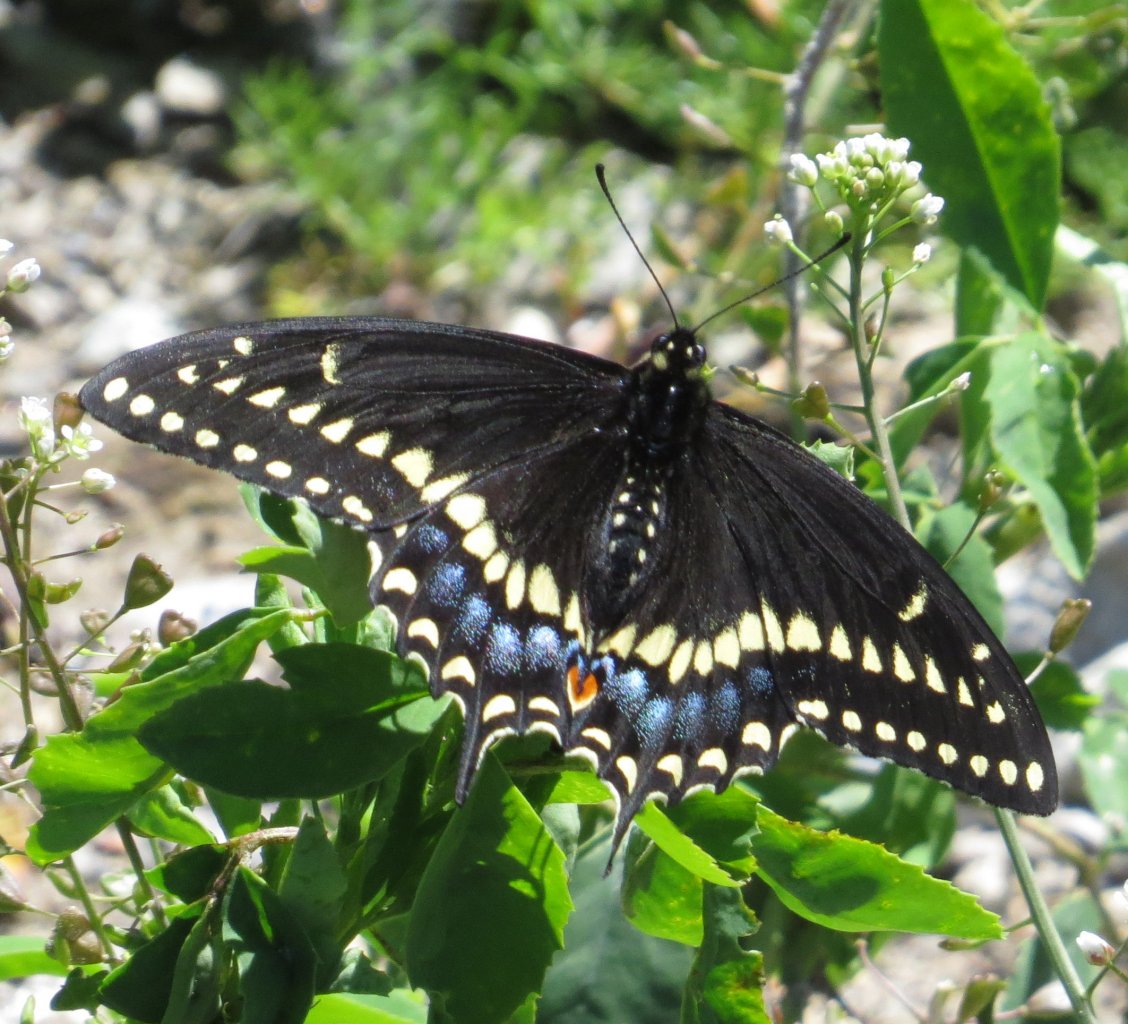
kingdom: Animalia
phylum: Arthropoda
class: Insecta
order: Lepidoptera
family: Papilionidae
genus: Papilio
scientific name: Papilio polyxenes
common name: Black Swallowtail
